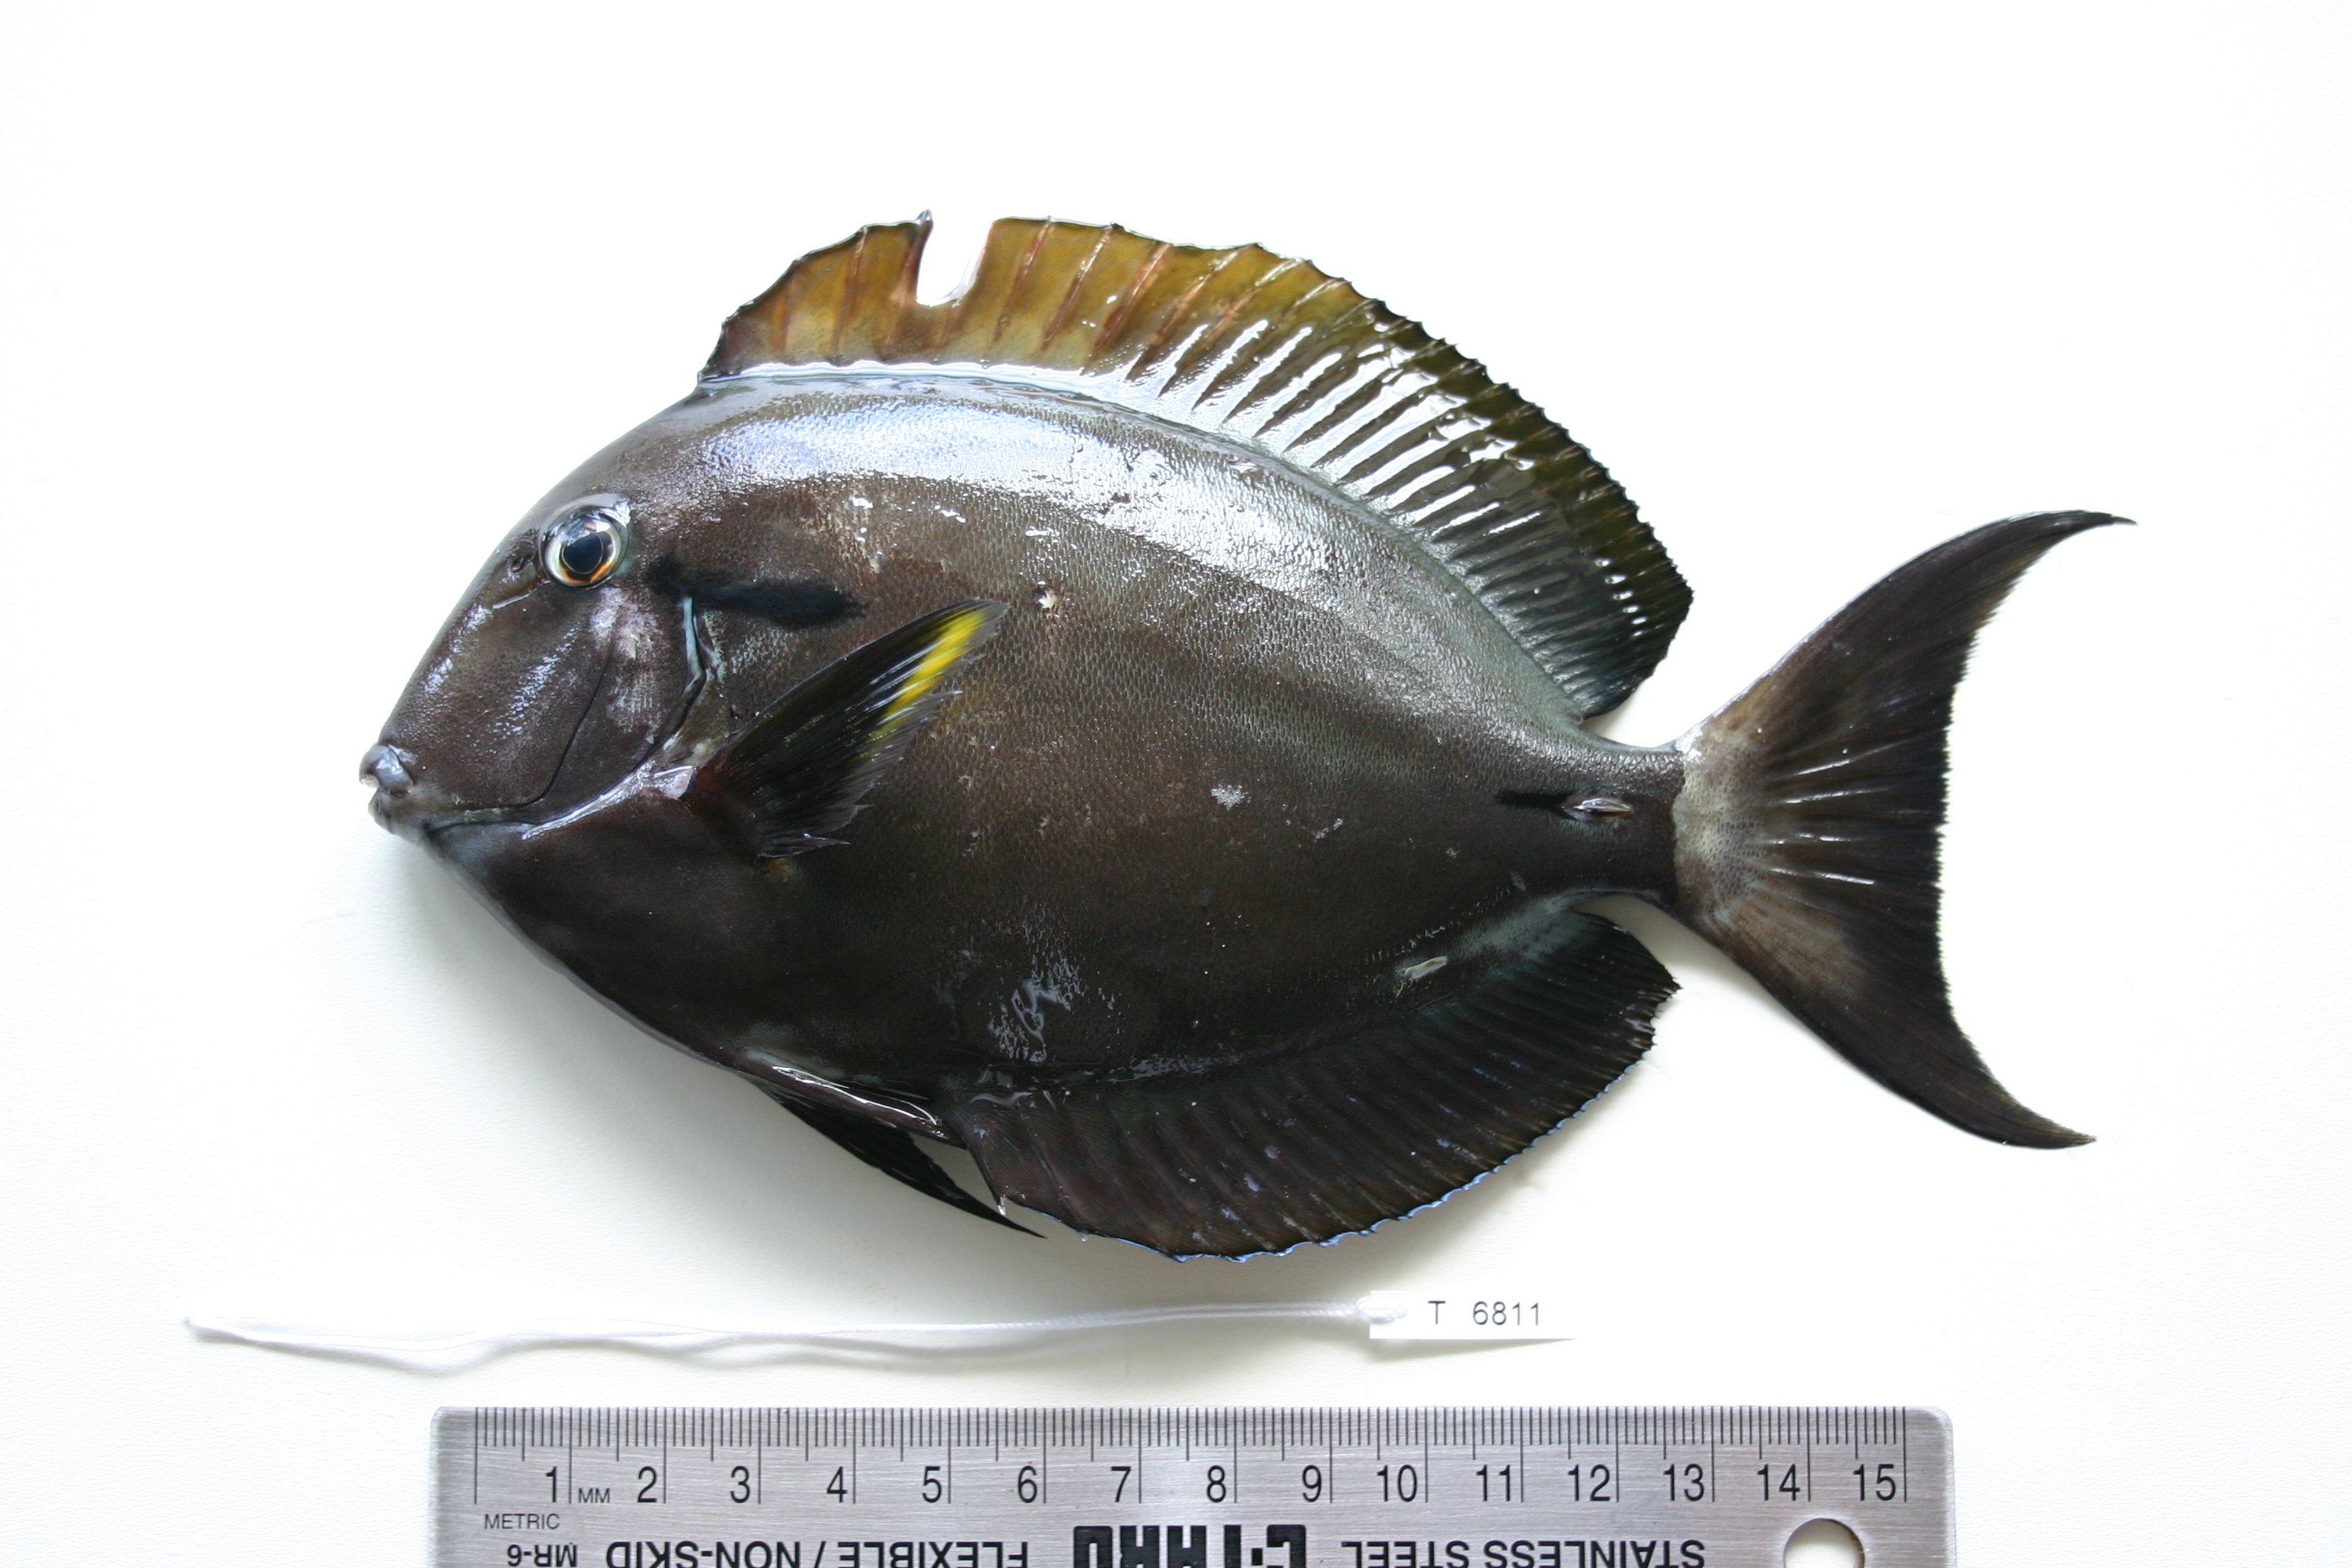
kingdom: Animalia
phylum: Chordata
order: Perciformes
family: Acanthuridae
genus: Acanthurus
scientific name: Acanthurus nigricauda
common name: Black-barred surgeonfish
